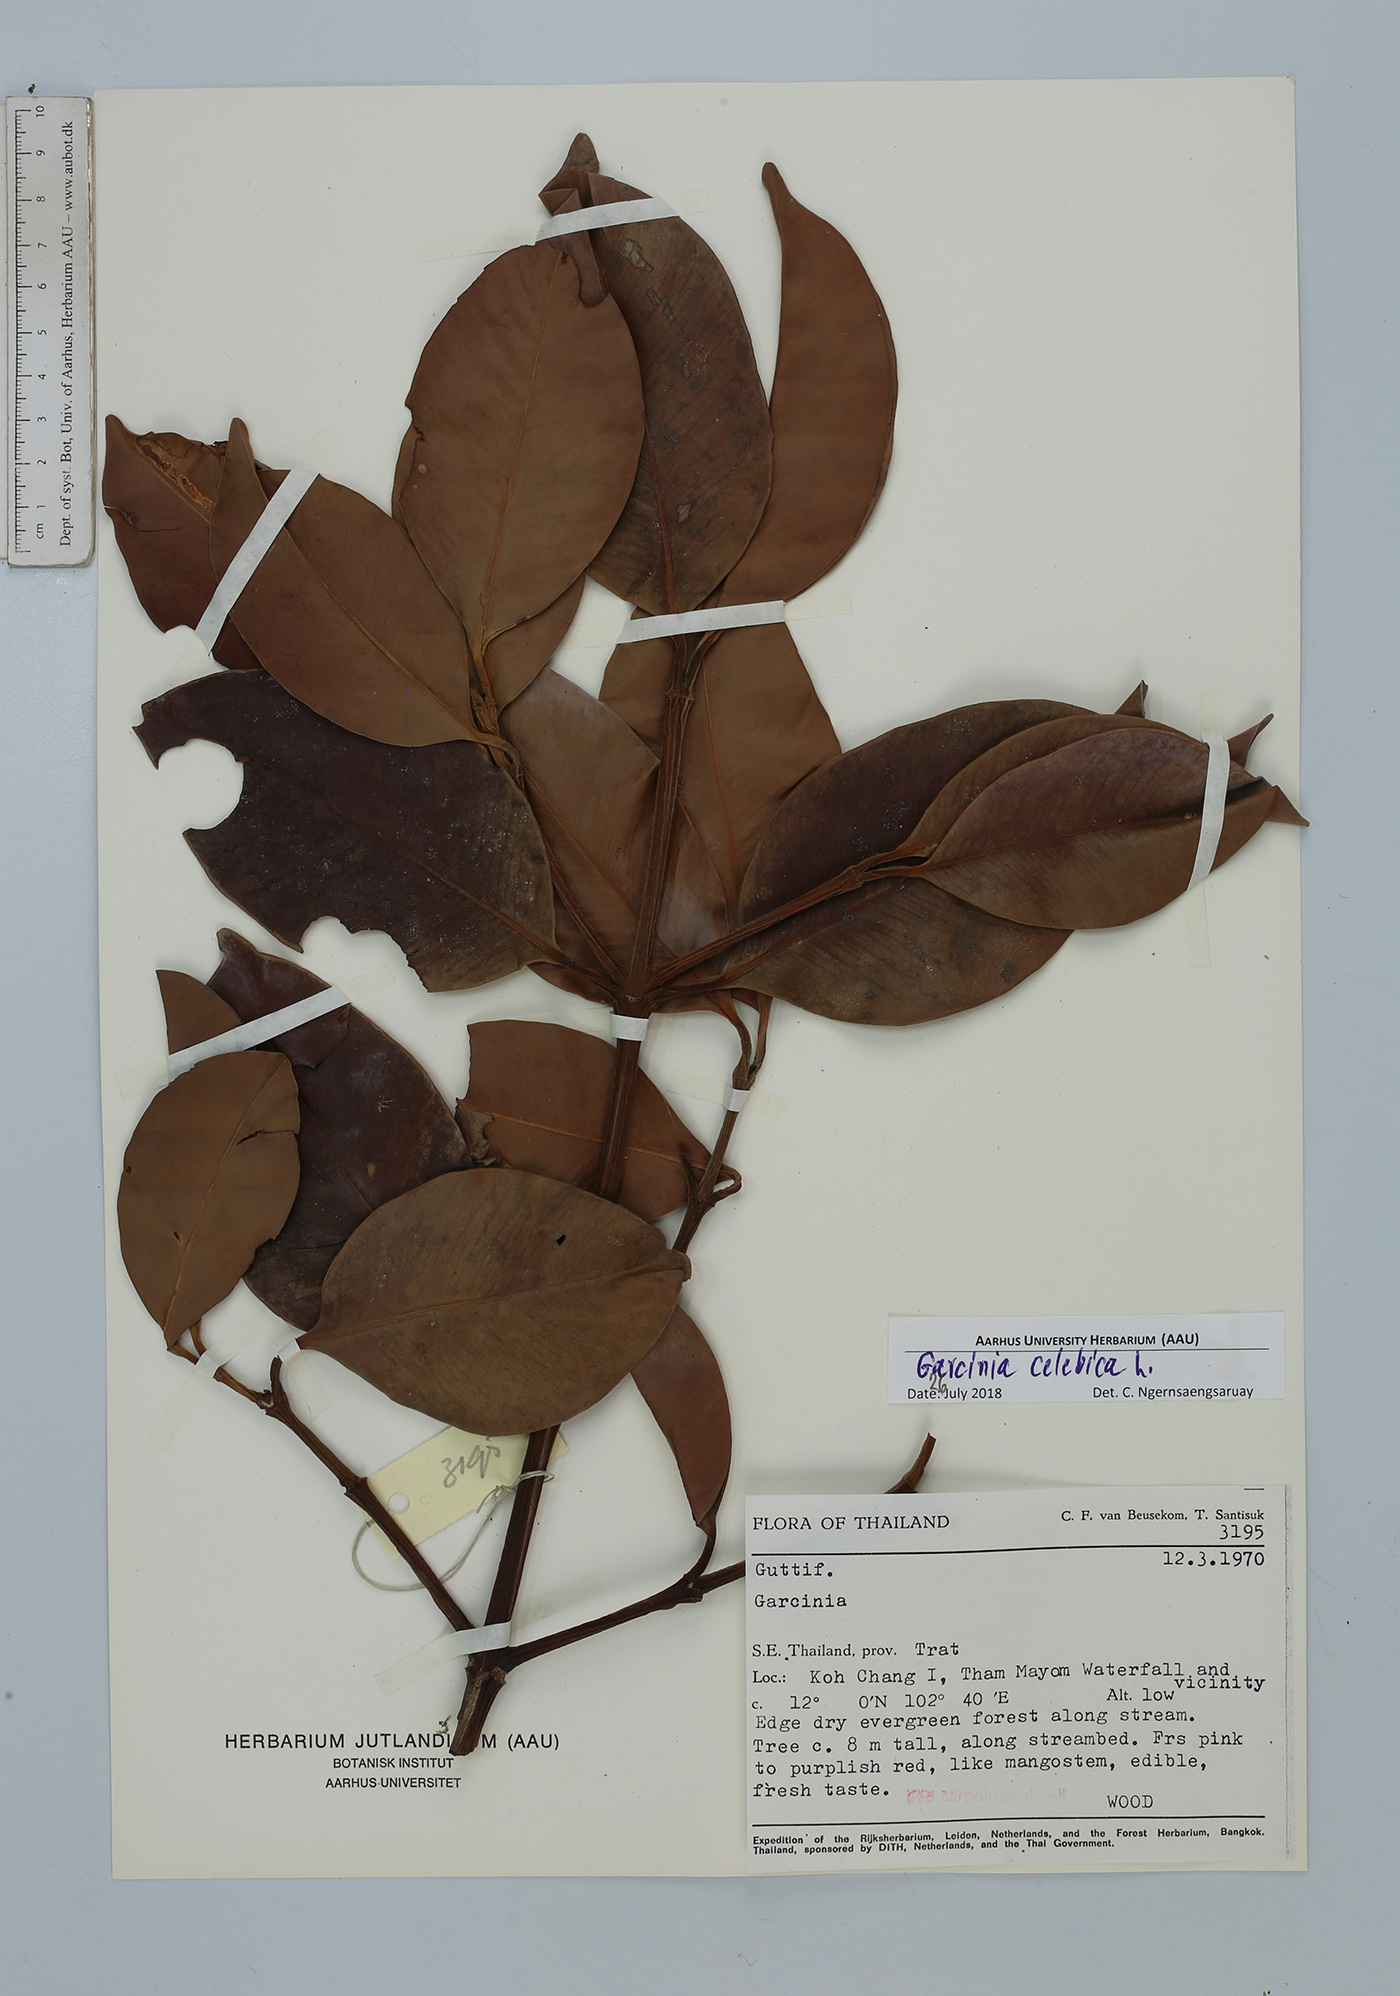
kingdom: Plantae
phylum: Tracheophyta
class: Magnoliopsida
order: Malpighiales
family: Clusiaceae
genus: Garcinia
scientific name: Garcinia celebica
